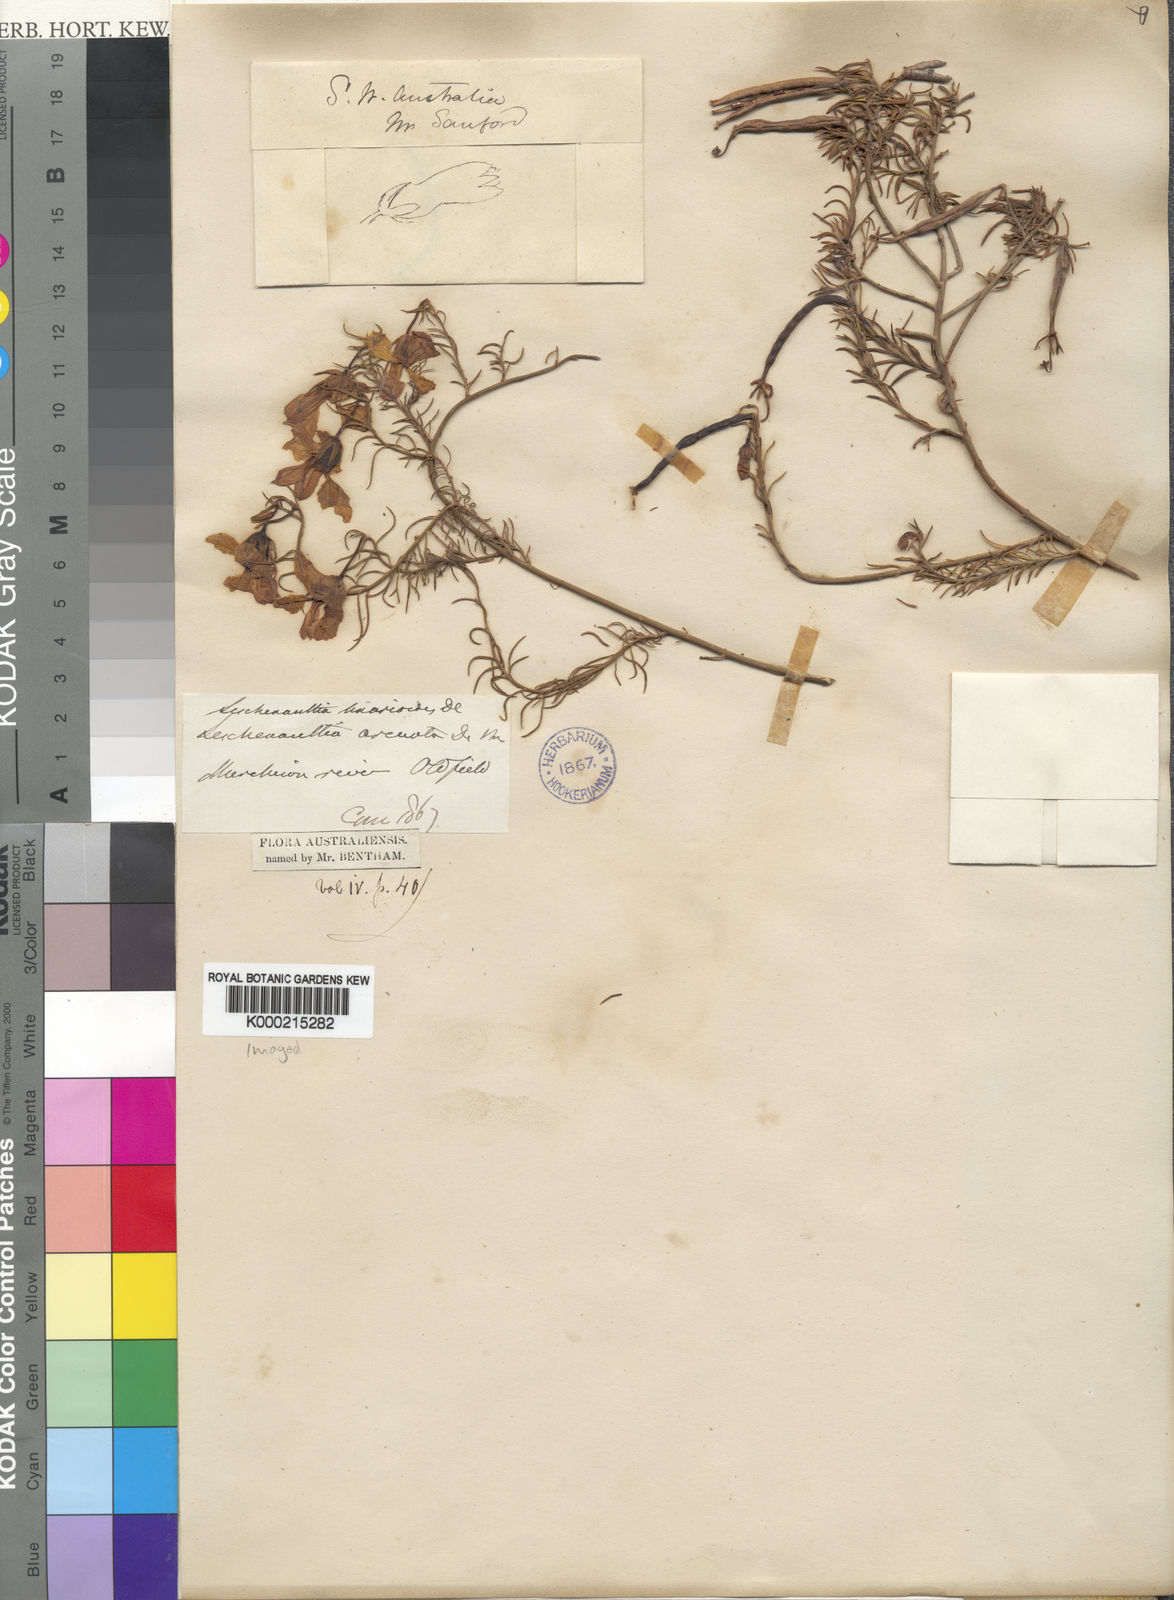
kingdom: Plantae
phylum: Tracheophyta
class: Magnoliopsida
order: Asterales
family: Goodeniaceae
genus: Leschenaultia
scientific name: Leschenaultia
